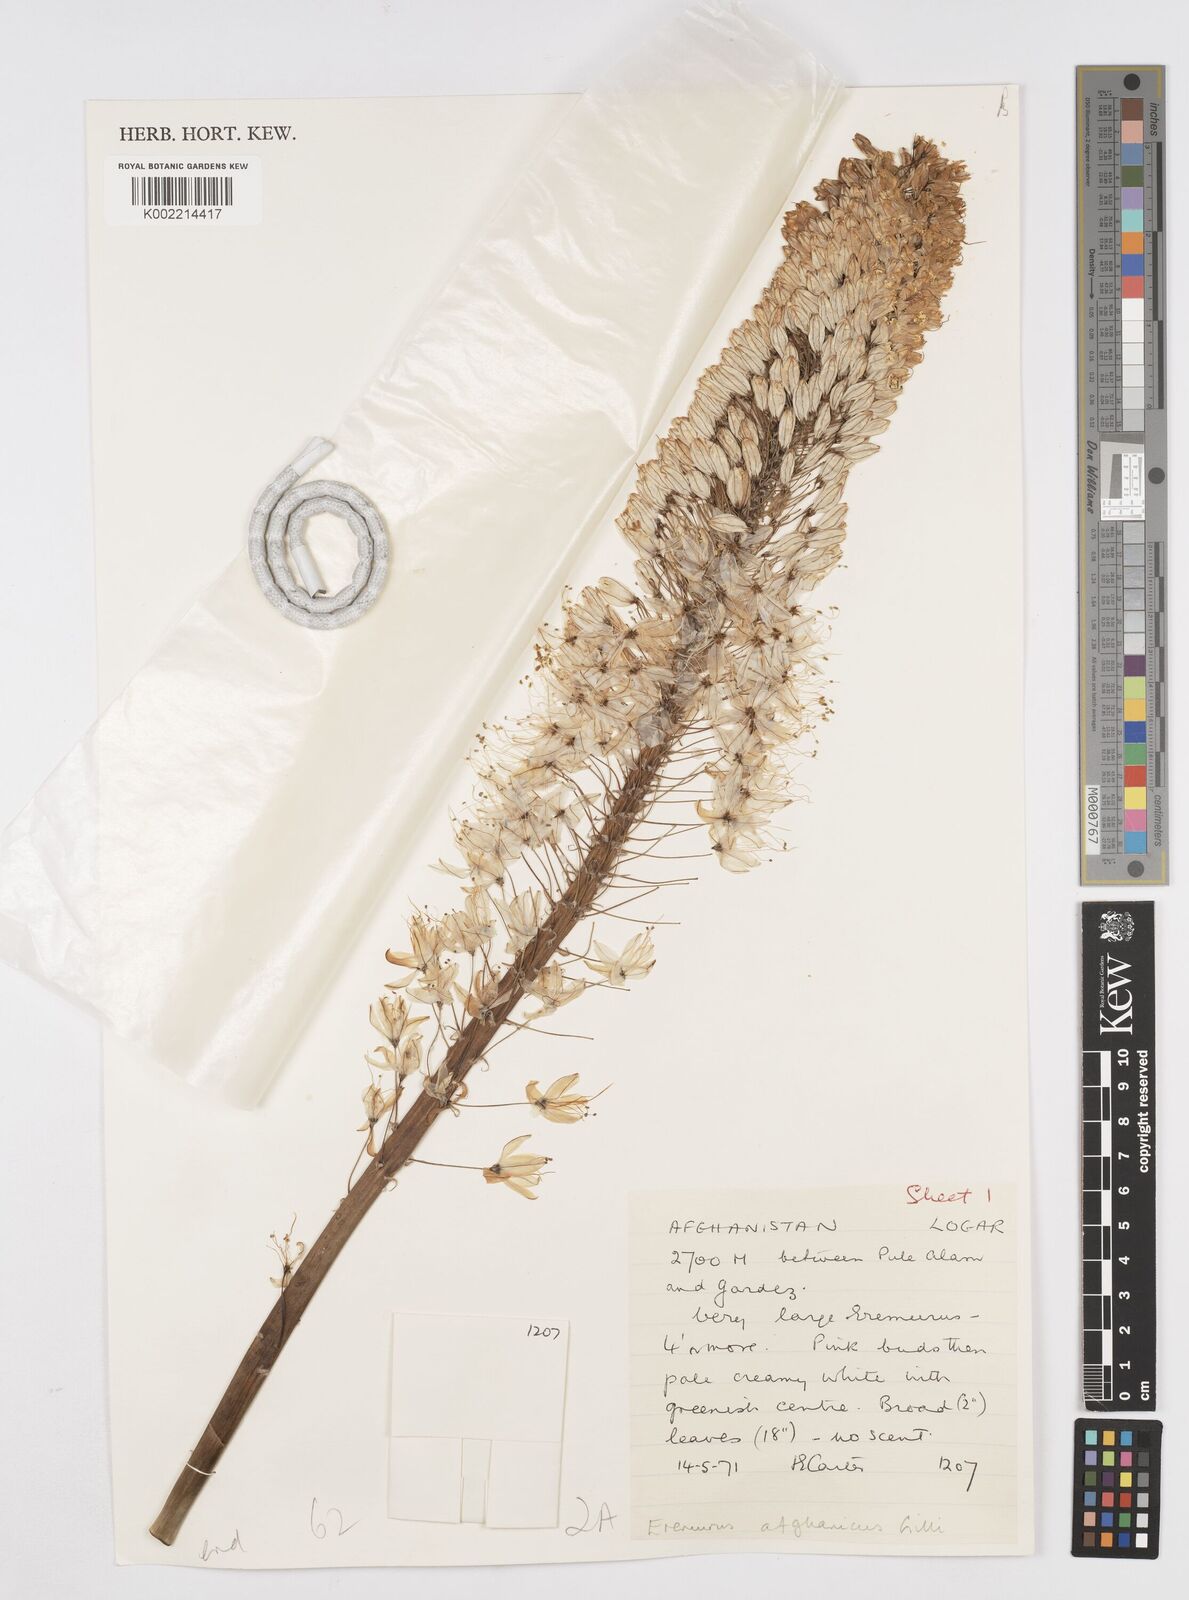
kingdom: Plantae
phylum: Tracheophyta
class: Liliopsida
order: Asparagales
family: Asphodelaceae
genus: Eremurus
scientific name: Eremurus afghanicus
